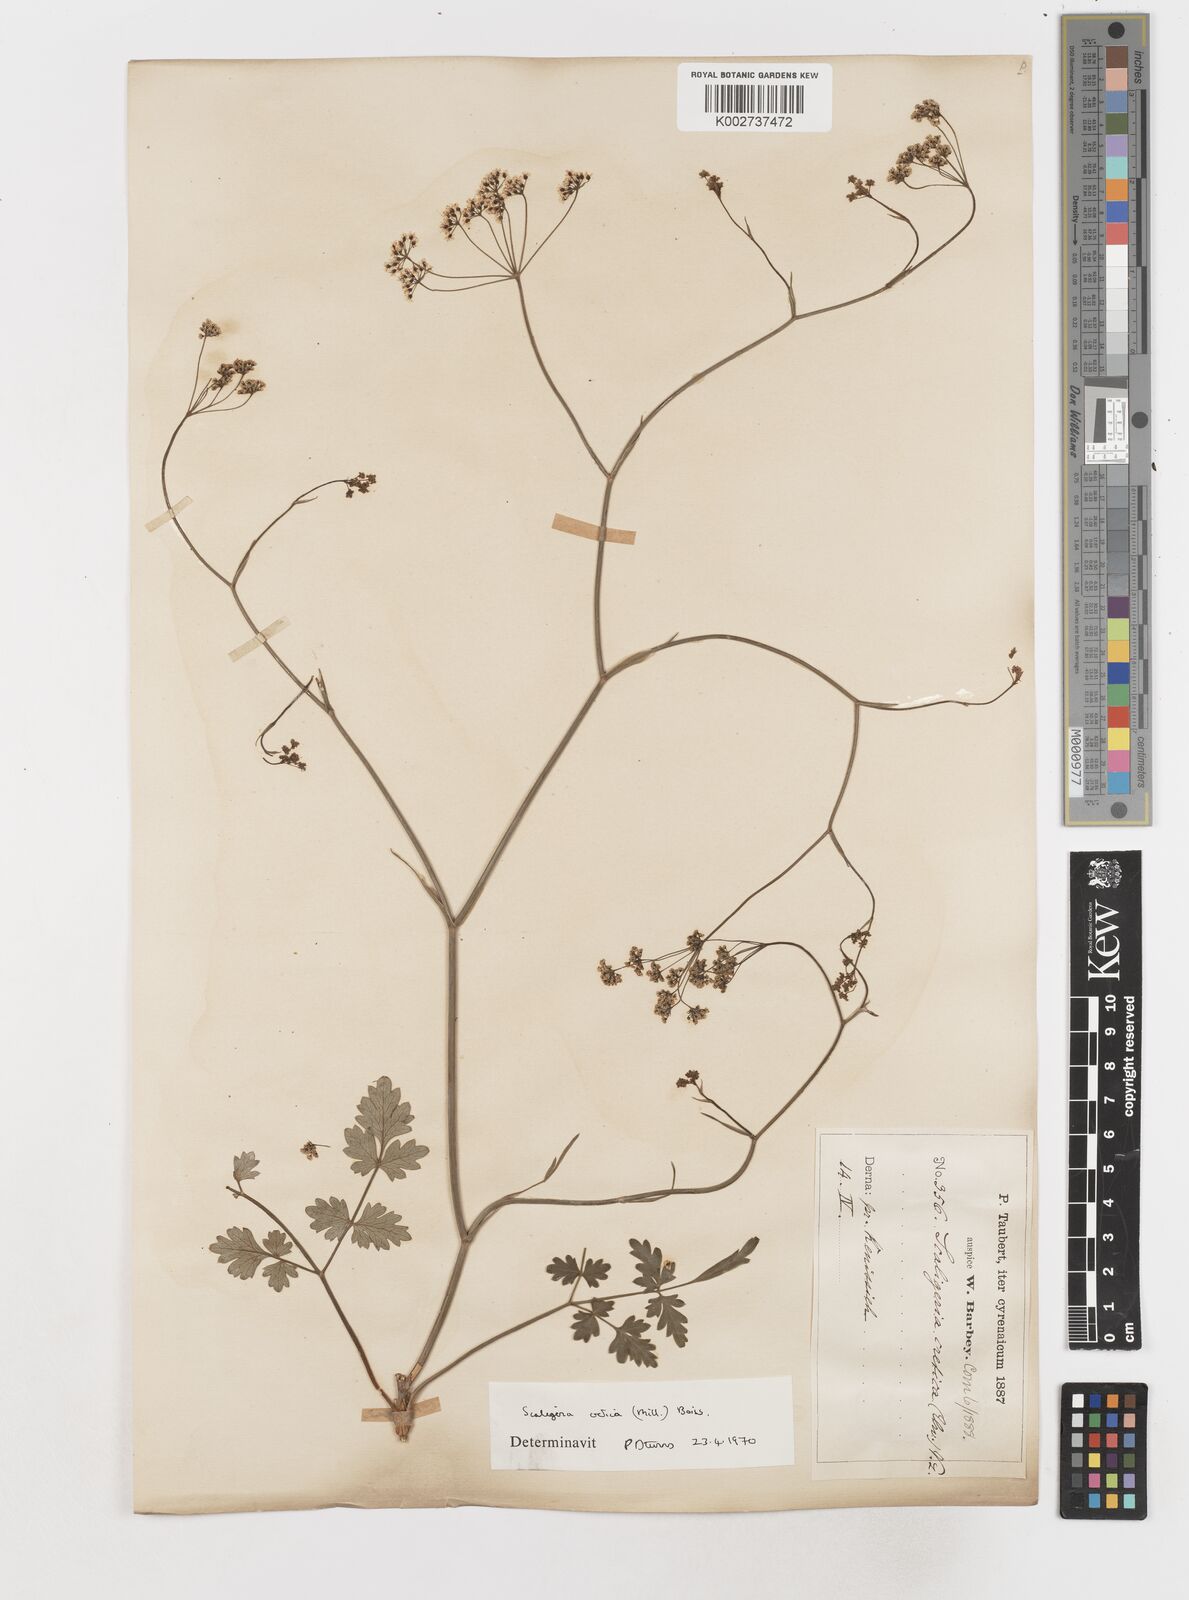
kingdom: Plantae
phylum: Tracheophyta
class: Magnoliopsida
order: Apiales
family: Apiaceae
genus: Scaligeria
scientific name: Scaligeria napiformis
